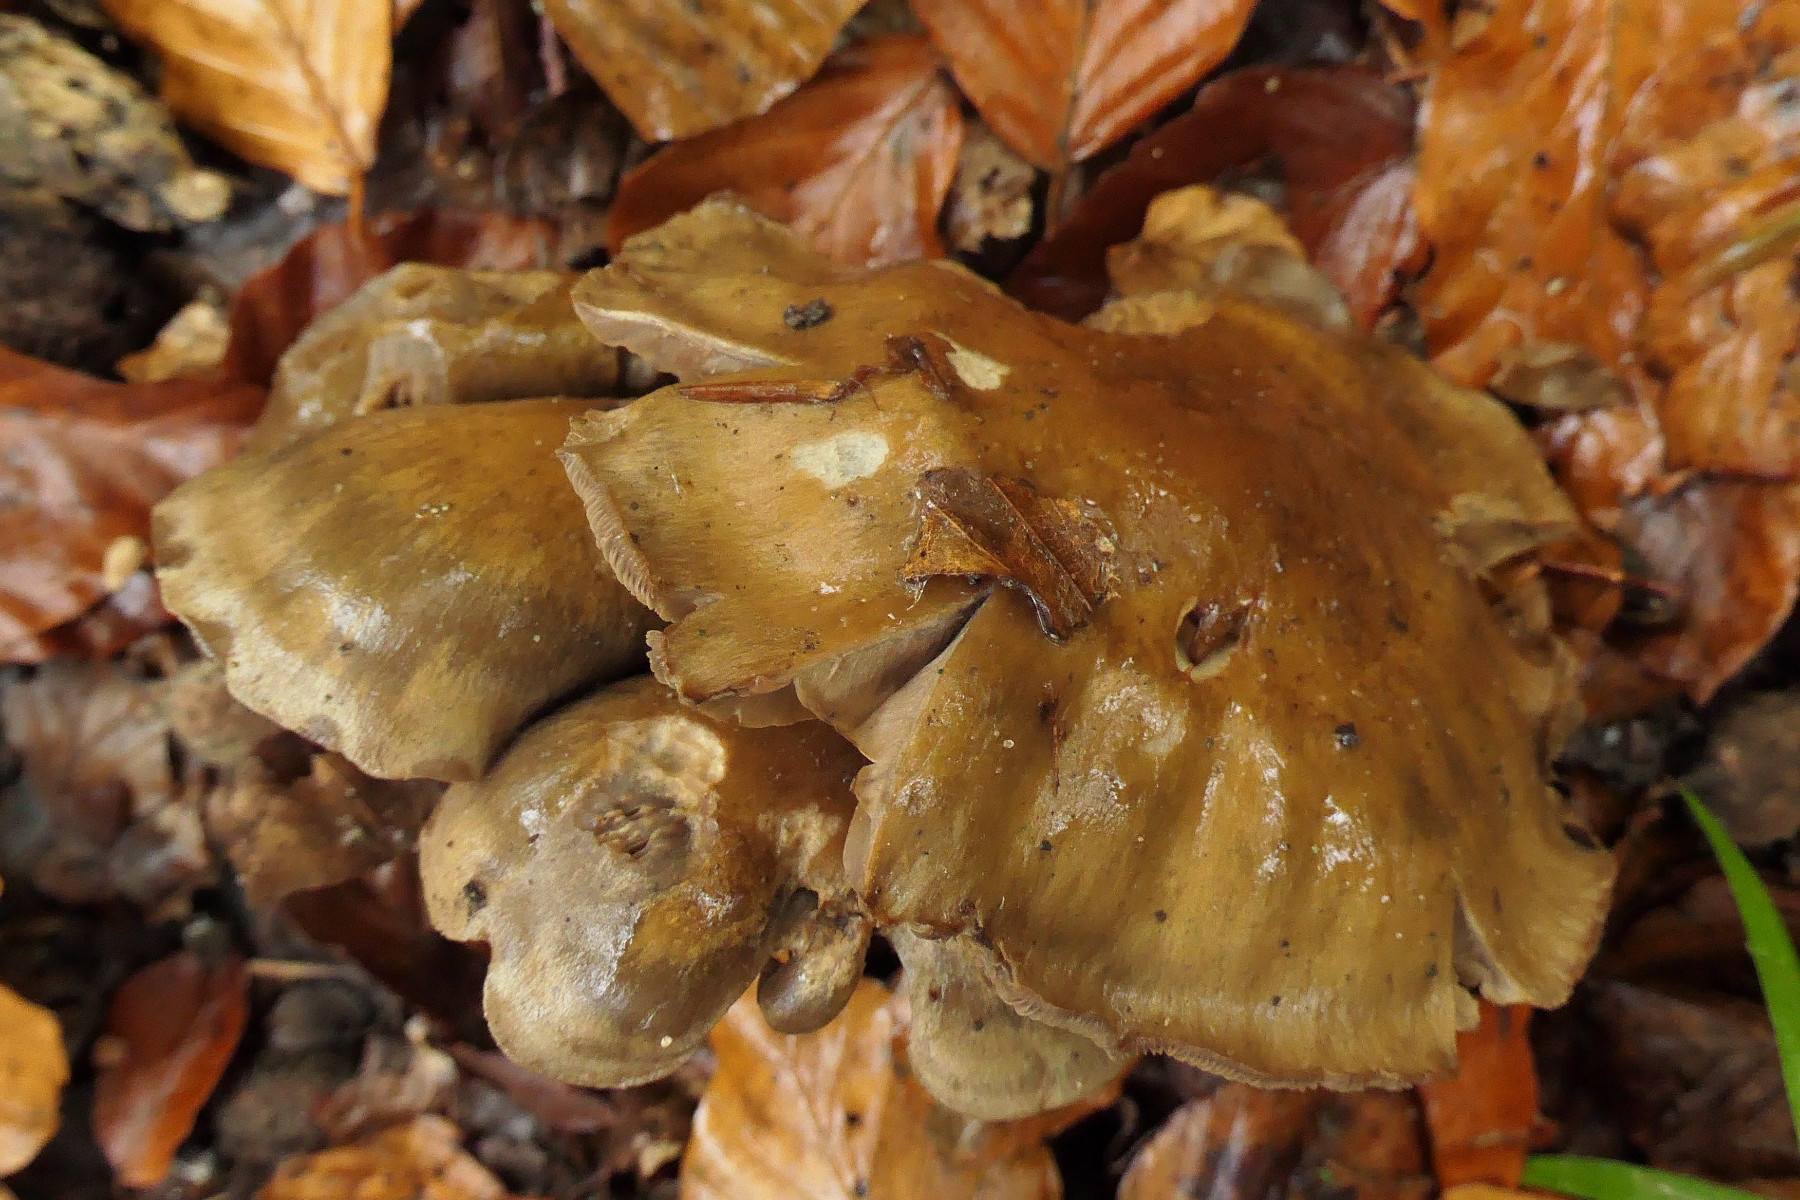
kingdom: Fungi
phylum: Basidiomycota
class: Agaricomycetes
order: Agaricales
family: Cortinariaceae
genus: Cortinarius
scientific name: Cortinarius
